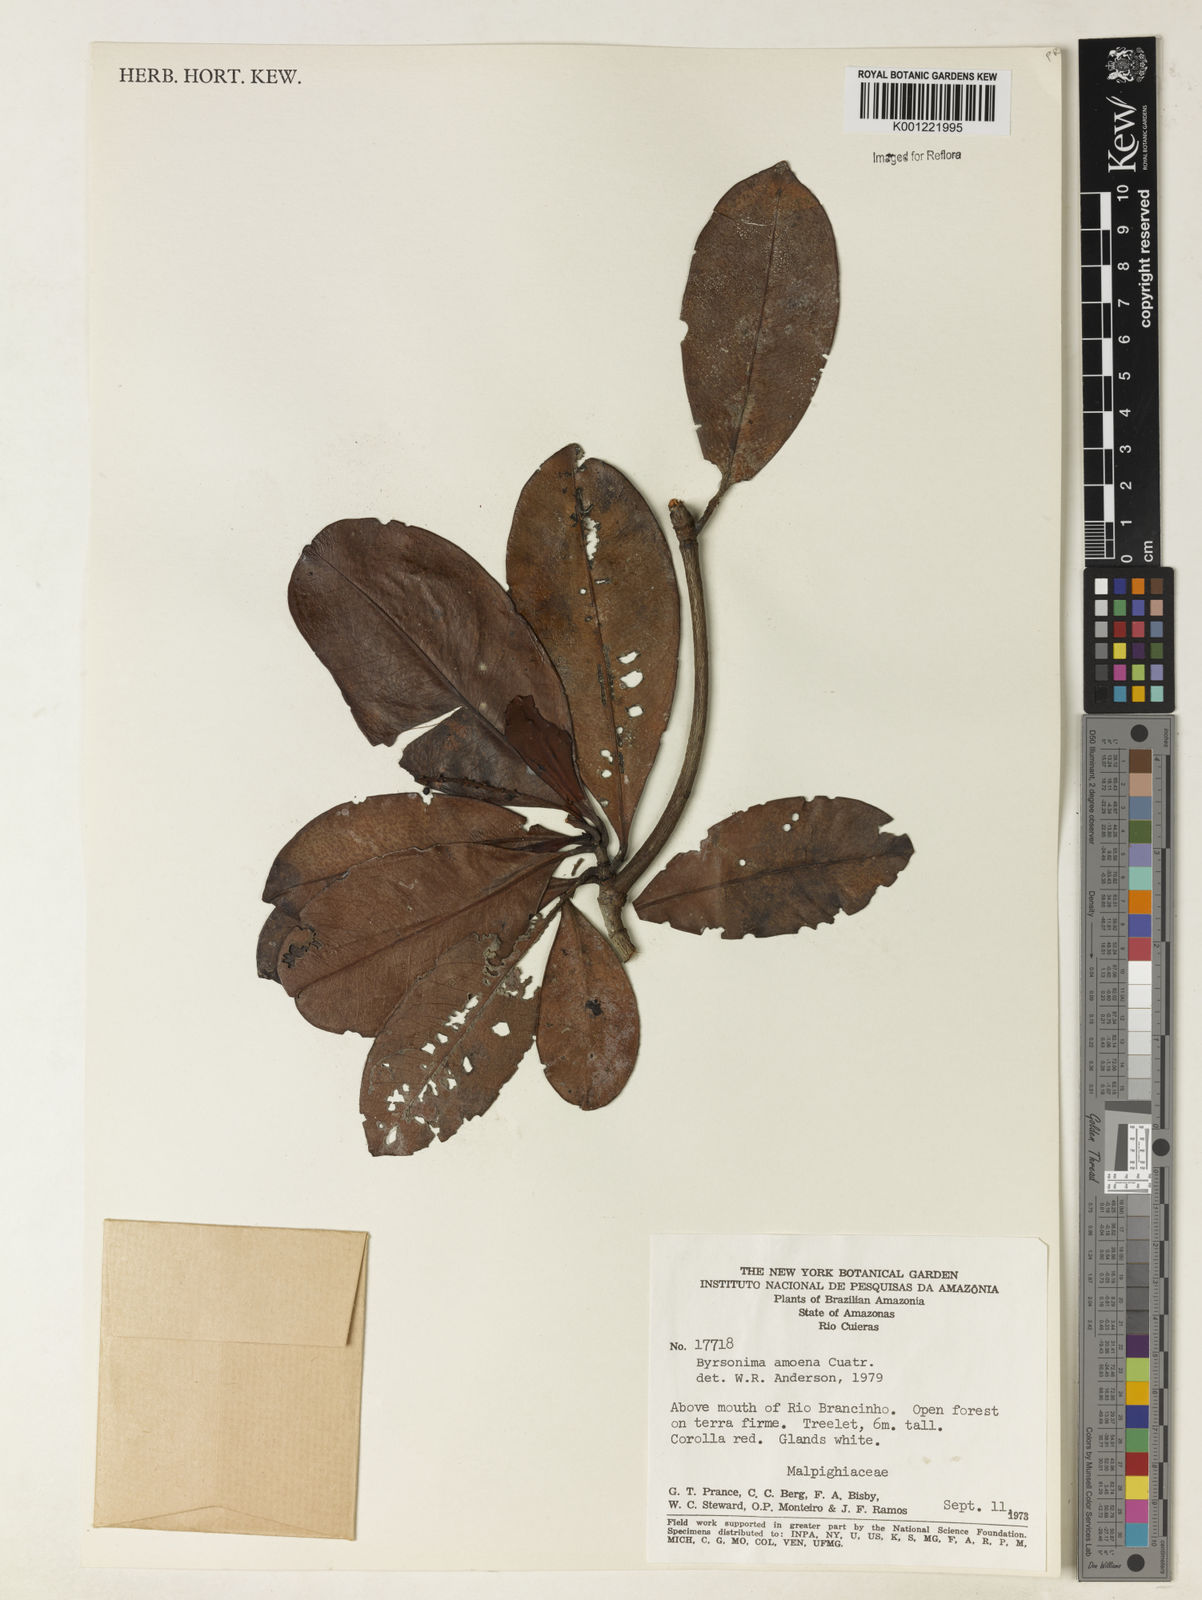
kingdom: Plantae
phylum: Tracheophyta
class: Magnoliopsida
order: Malpighiales
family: Malpighiaceae
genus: Byrsonima
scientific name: Byrsonima amoena
